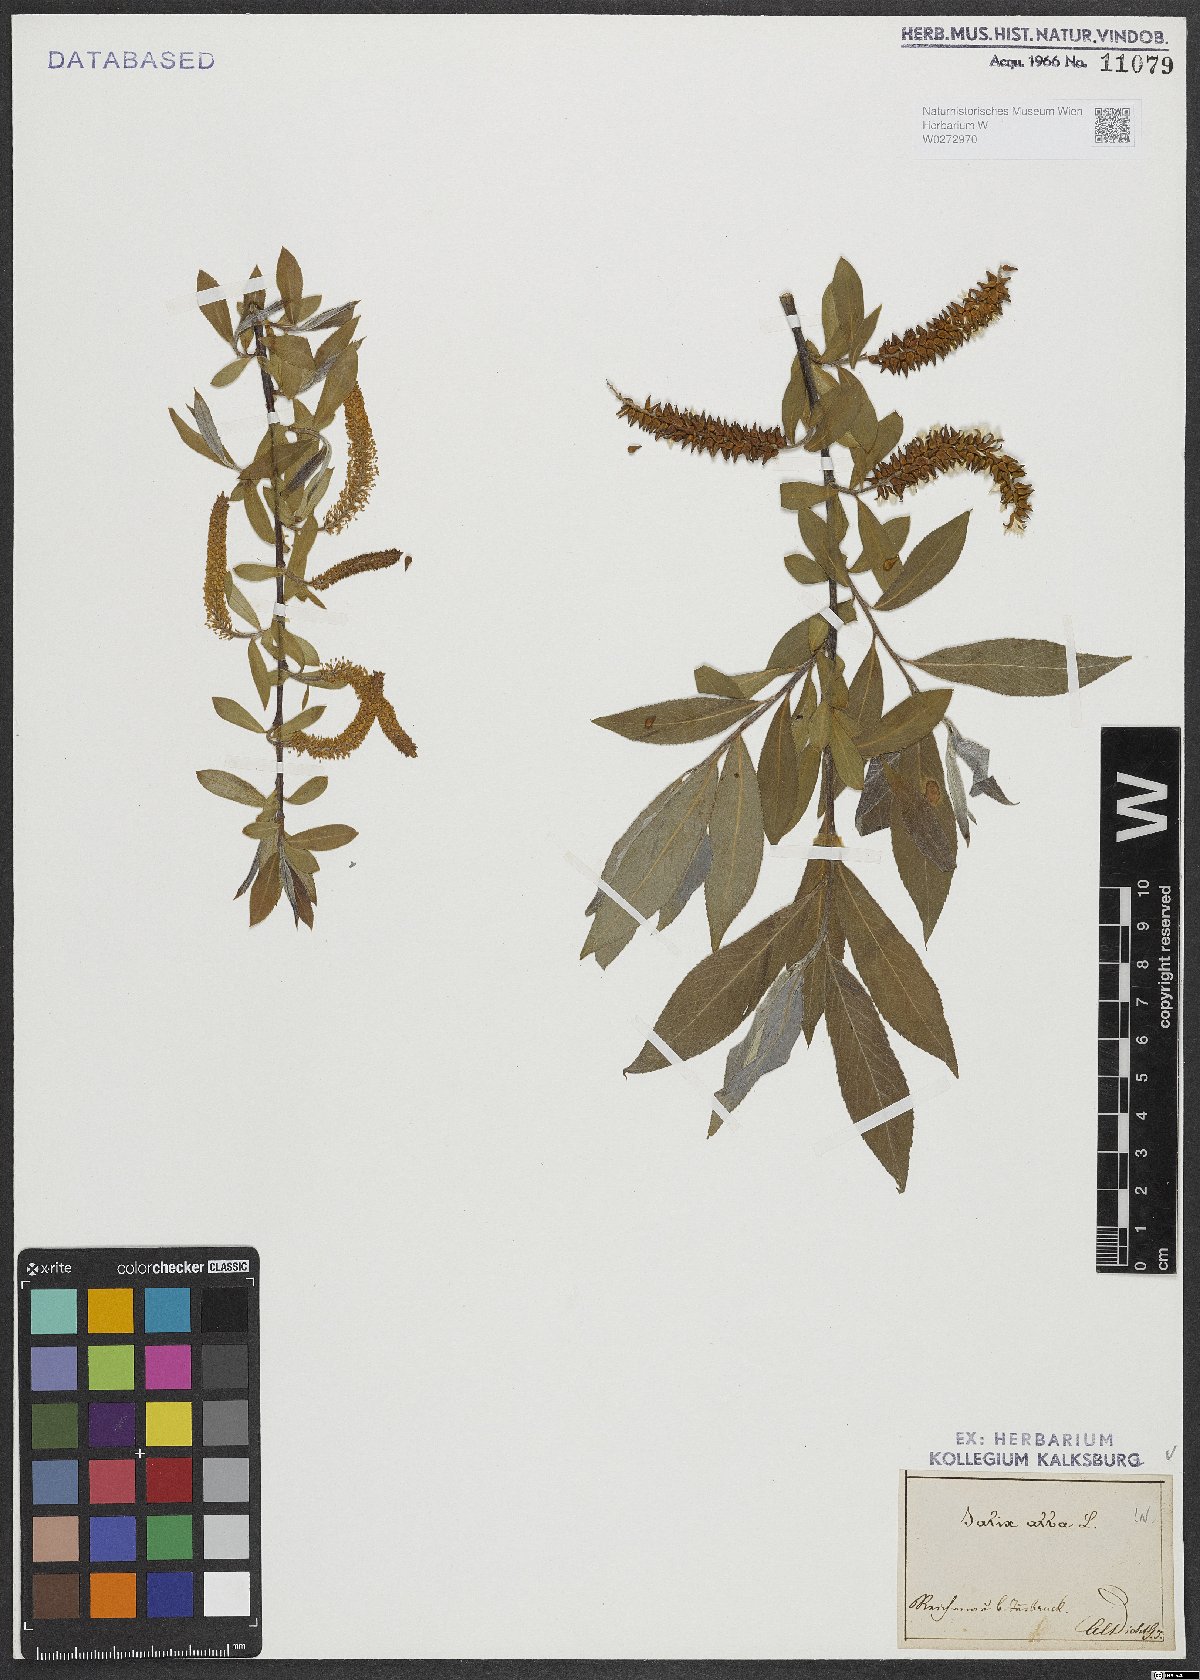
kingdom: Plantae
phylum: Tracheophyta
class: Magnoliopsida
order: Malpighiales
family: Salicaceae
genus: Salix
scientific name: Salix alba
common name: White willow
